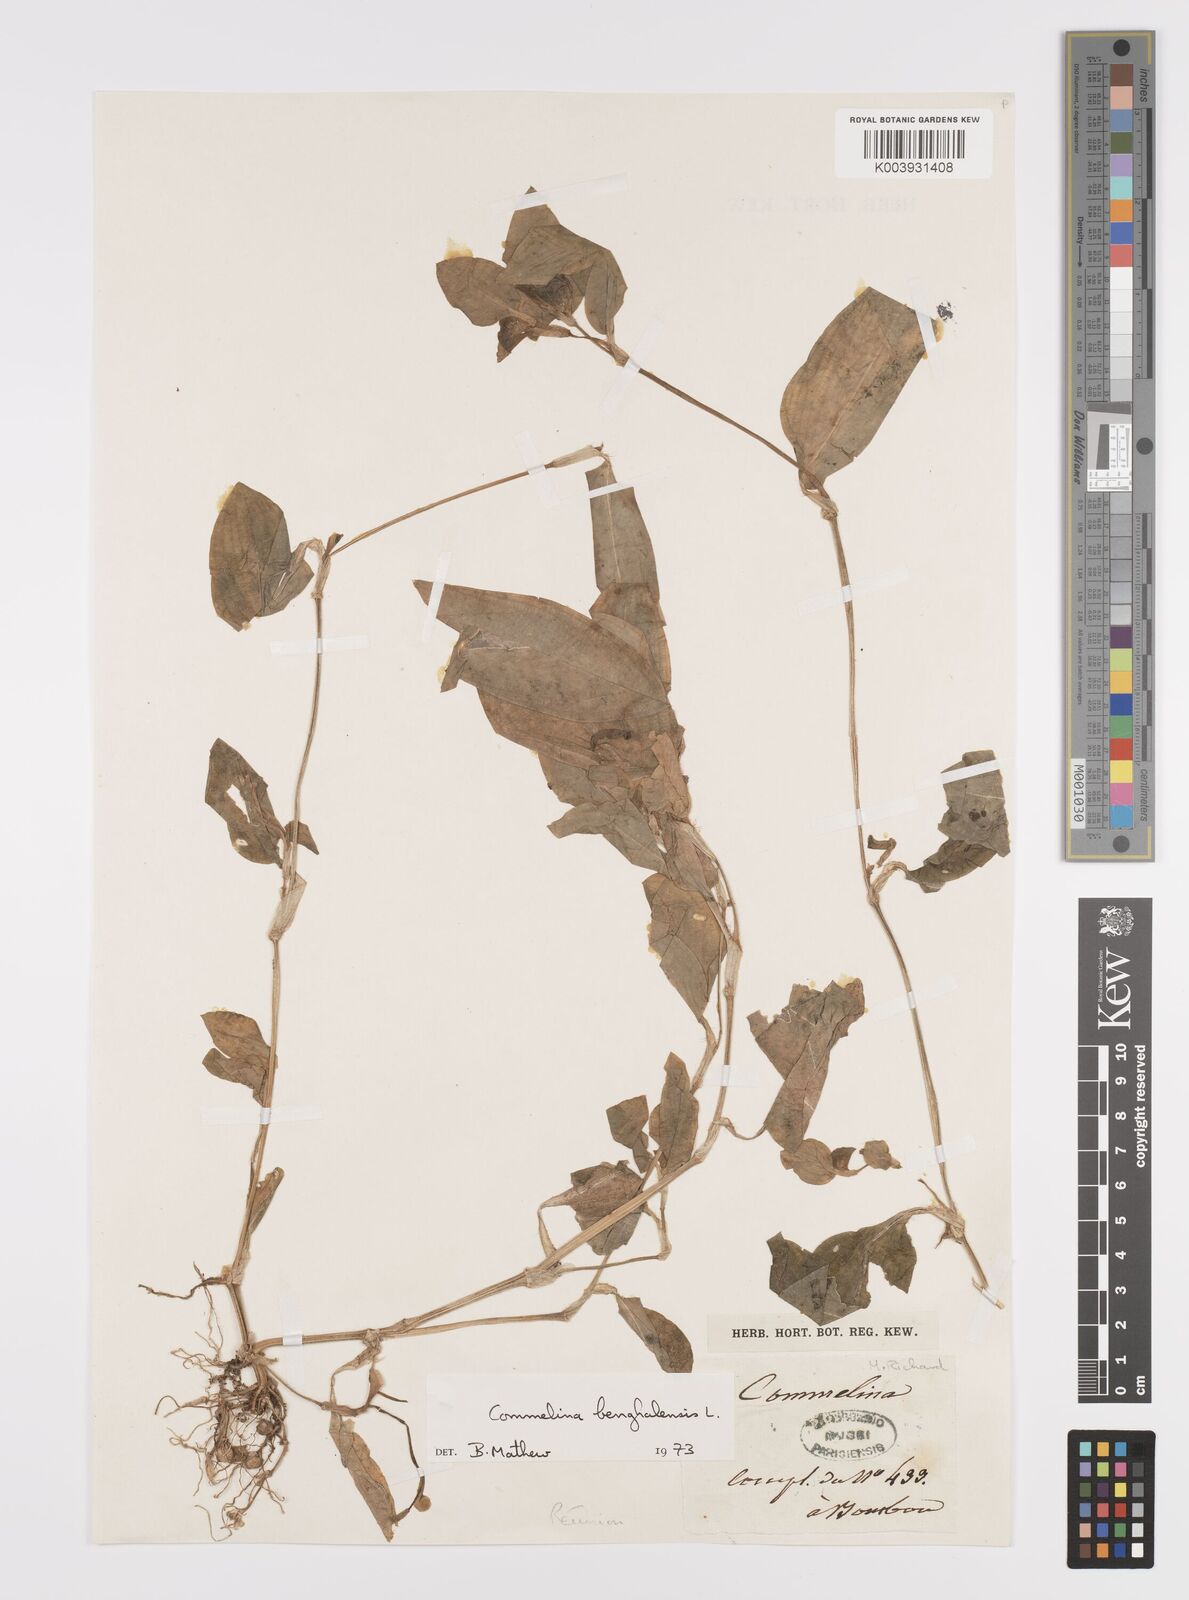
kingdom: Plantae
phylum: Tracheophyta
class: Liliopsida
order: Commelinales
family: Commelinaceae
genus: Commelina
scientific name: Commelina benghalensis
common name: Jio
